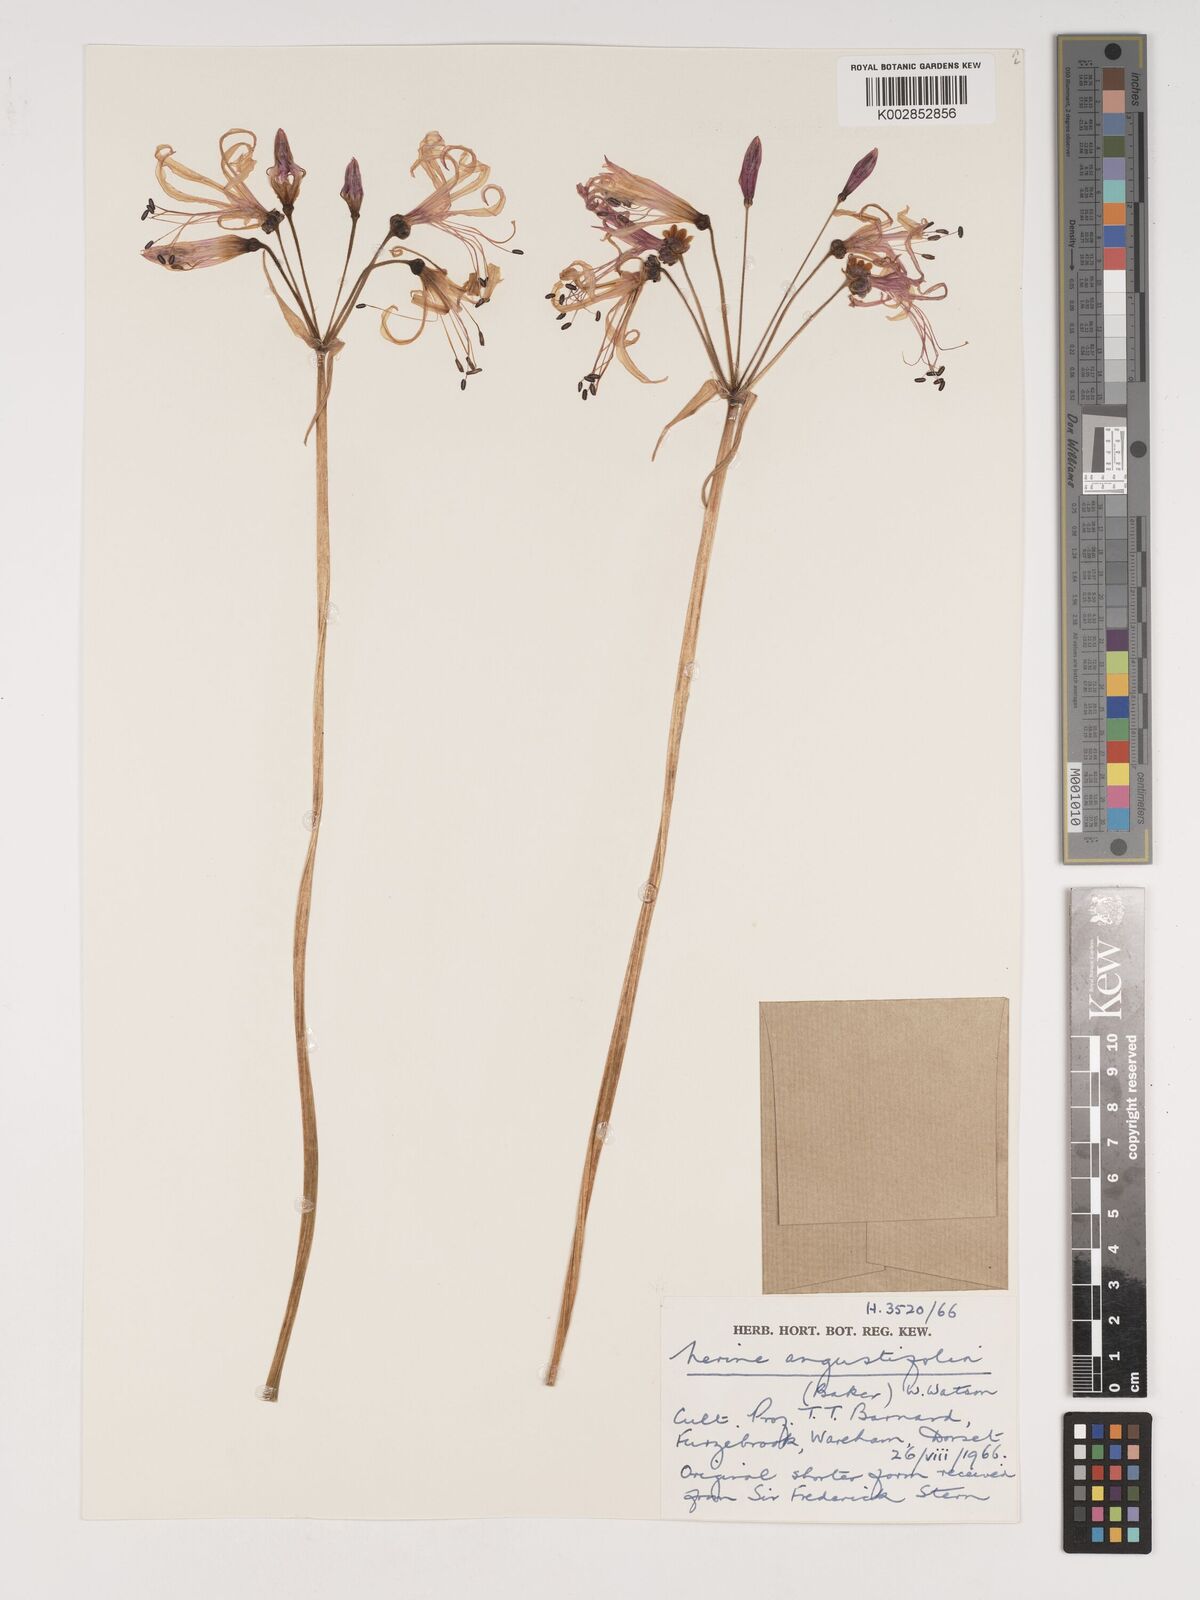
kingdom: Plantae
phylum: Tracheophyta
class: Liliopsida
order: Asparagales
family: Amaryllidaceae
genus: Nerine
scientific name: Nerine angustifolia
